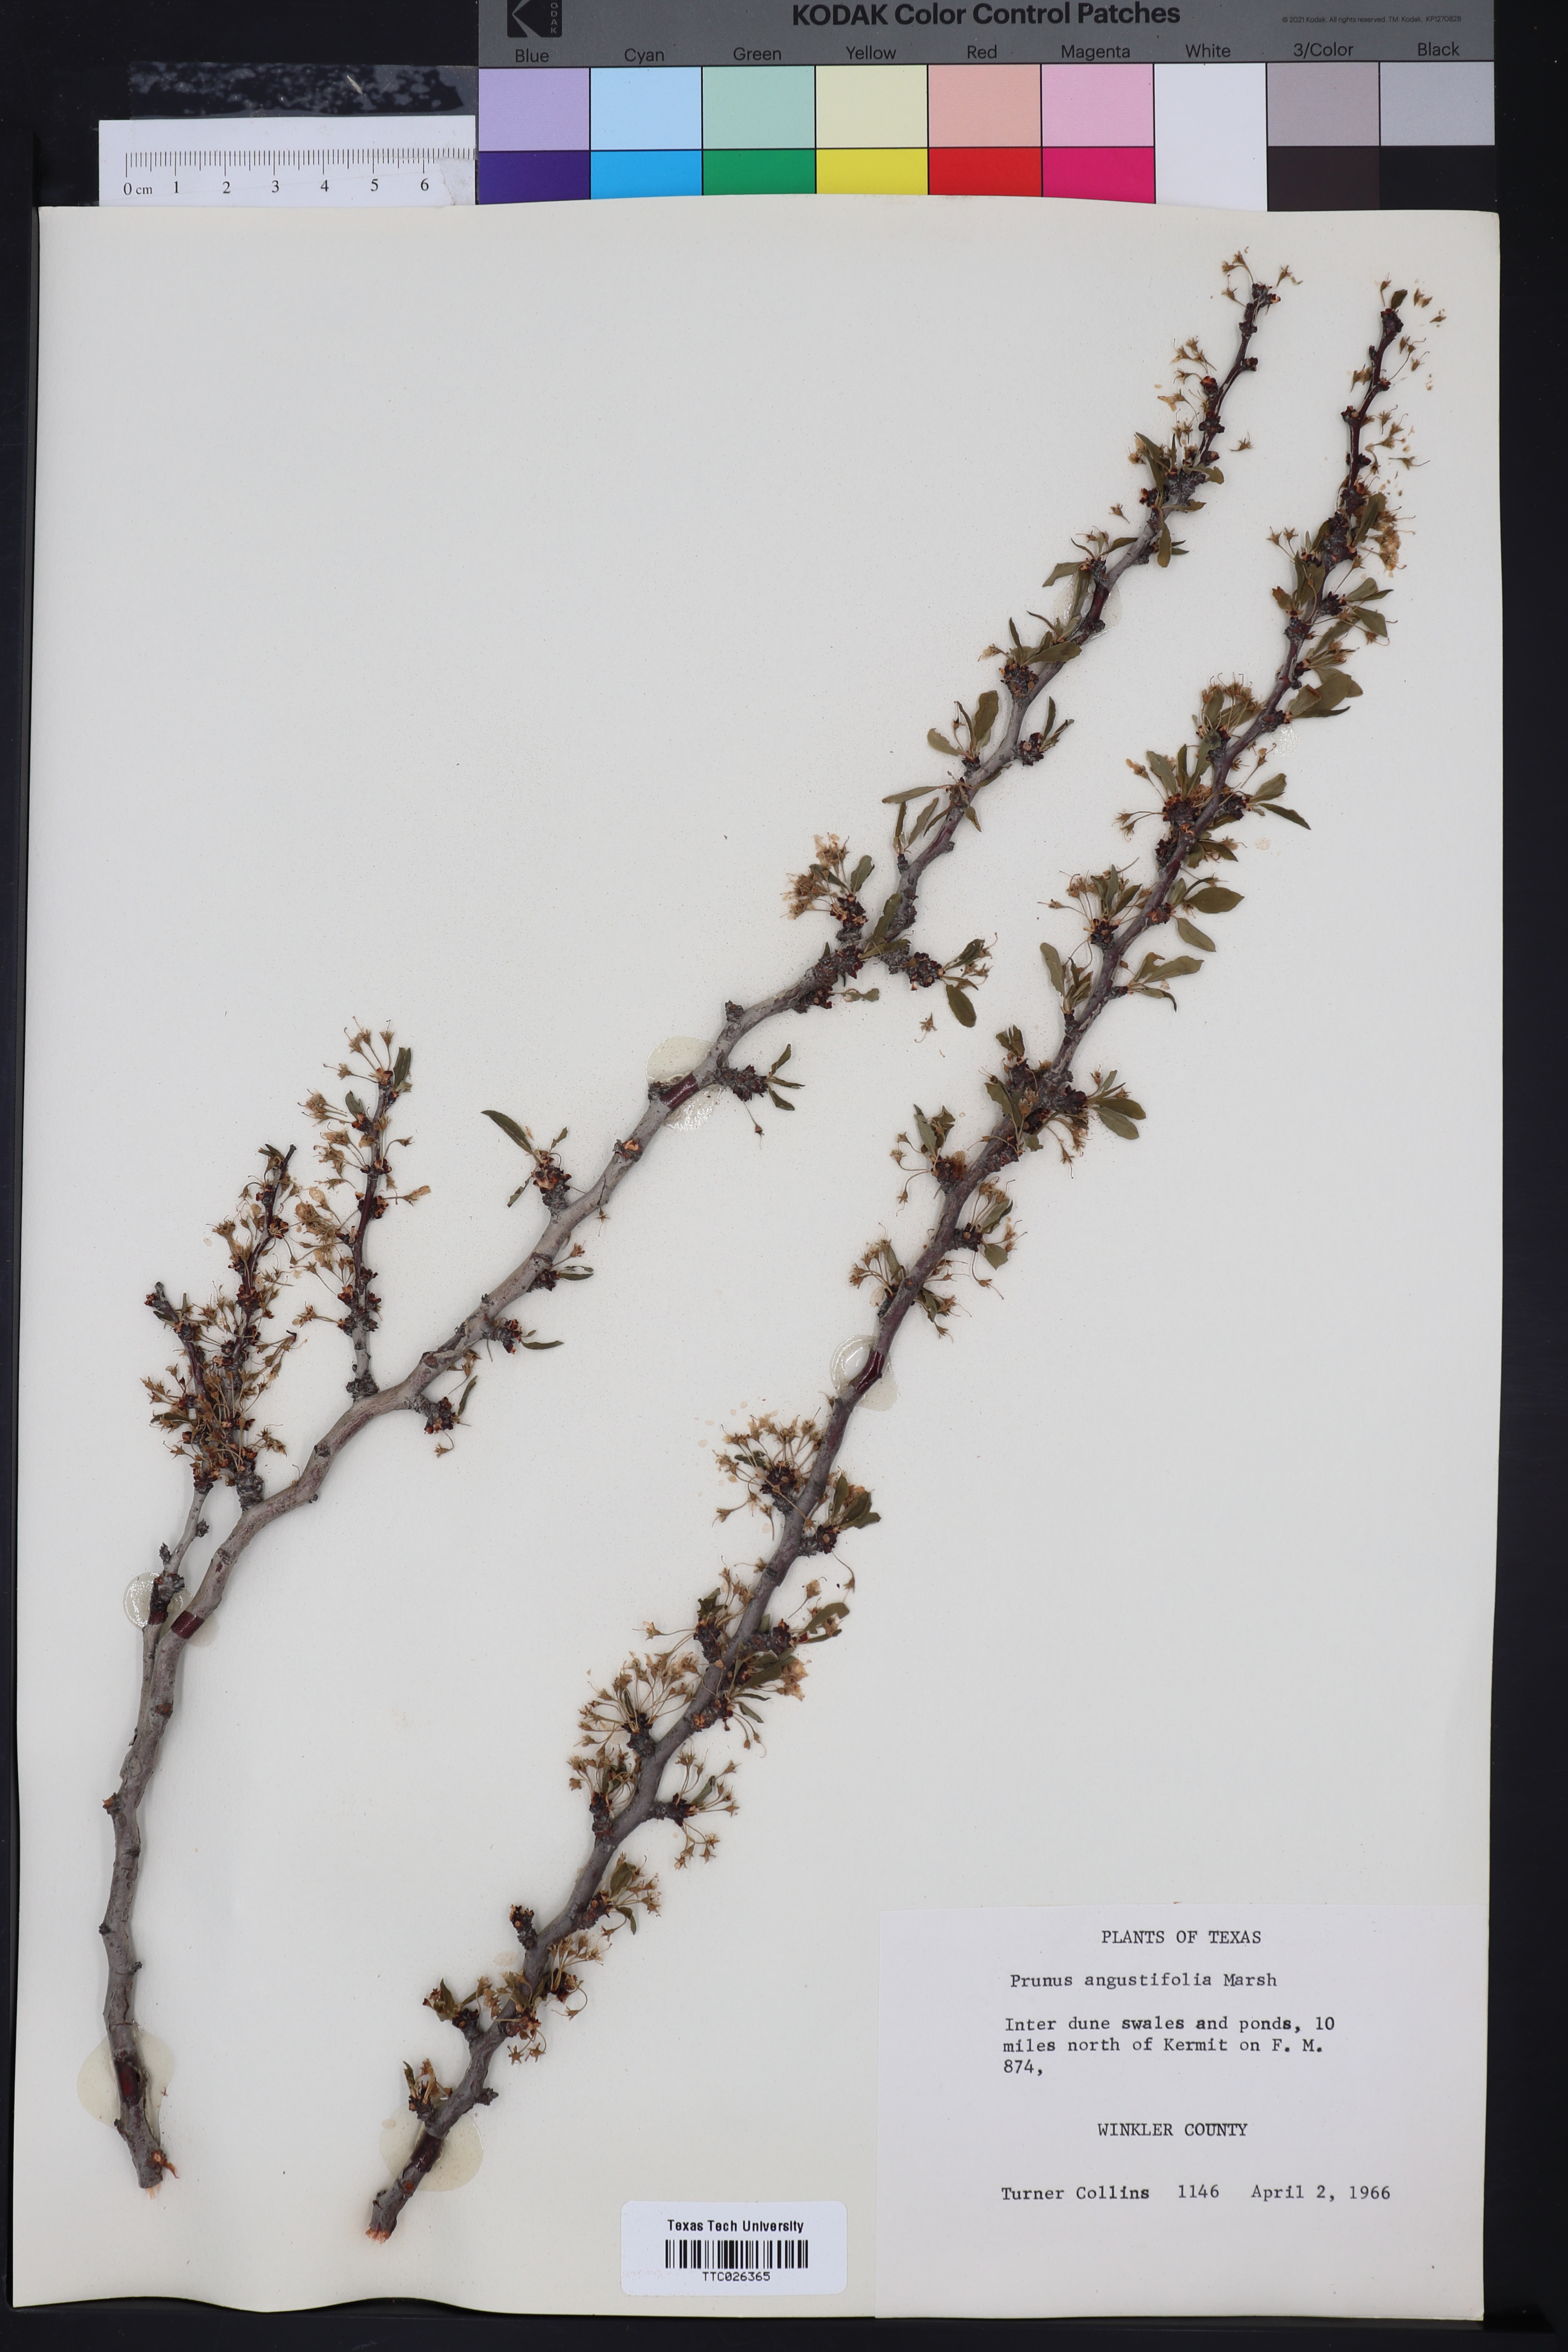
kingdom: Plantae
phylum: Tracheophyta
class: Magnoliopsida
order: Rosales
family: Rosaceae
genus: Prunus
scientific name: Prunus angustifolia
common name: Cherokee plum
